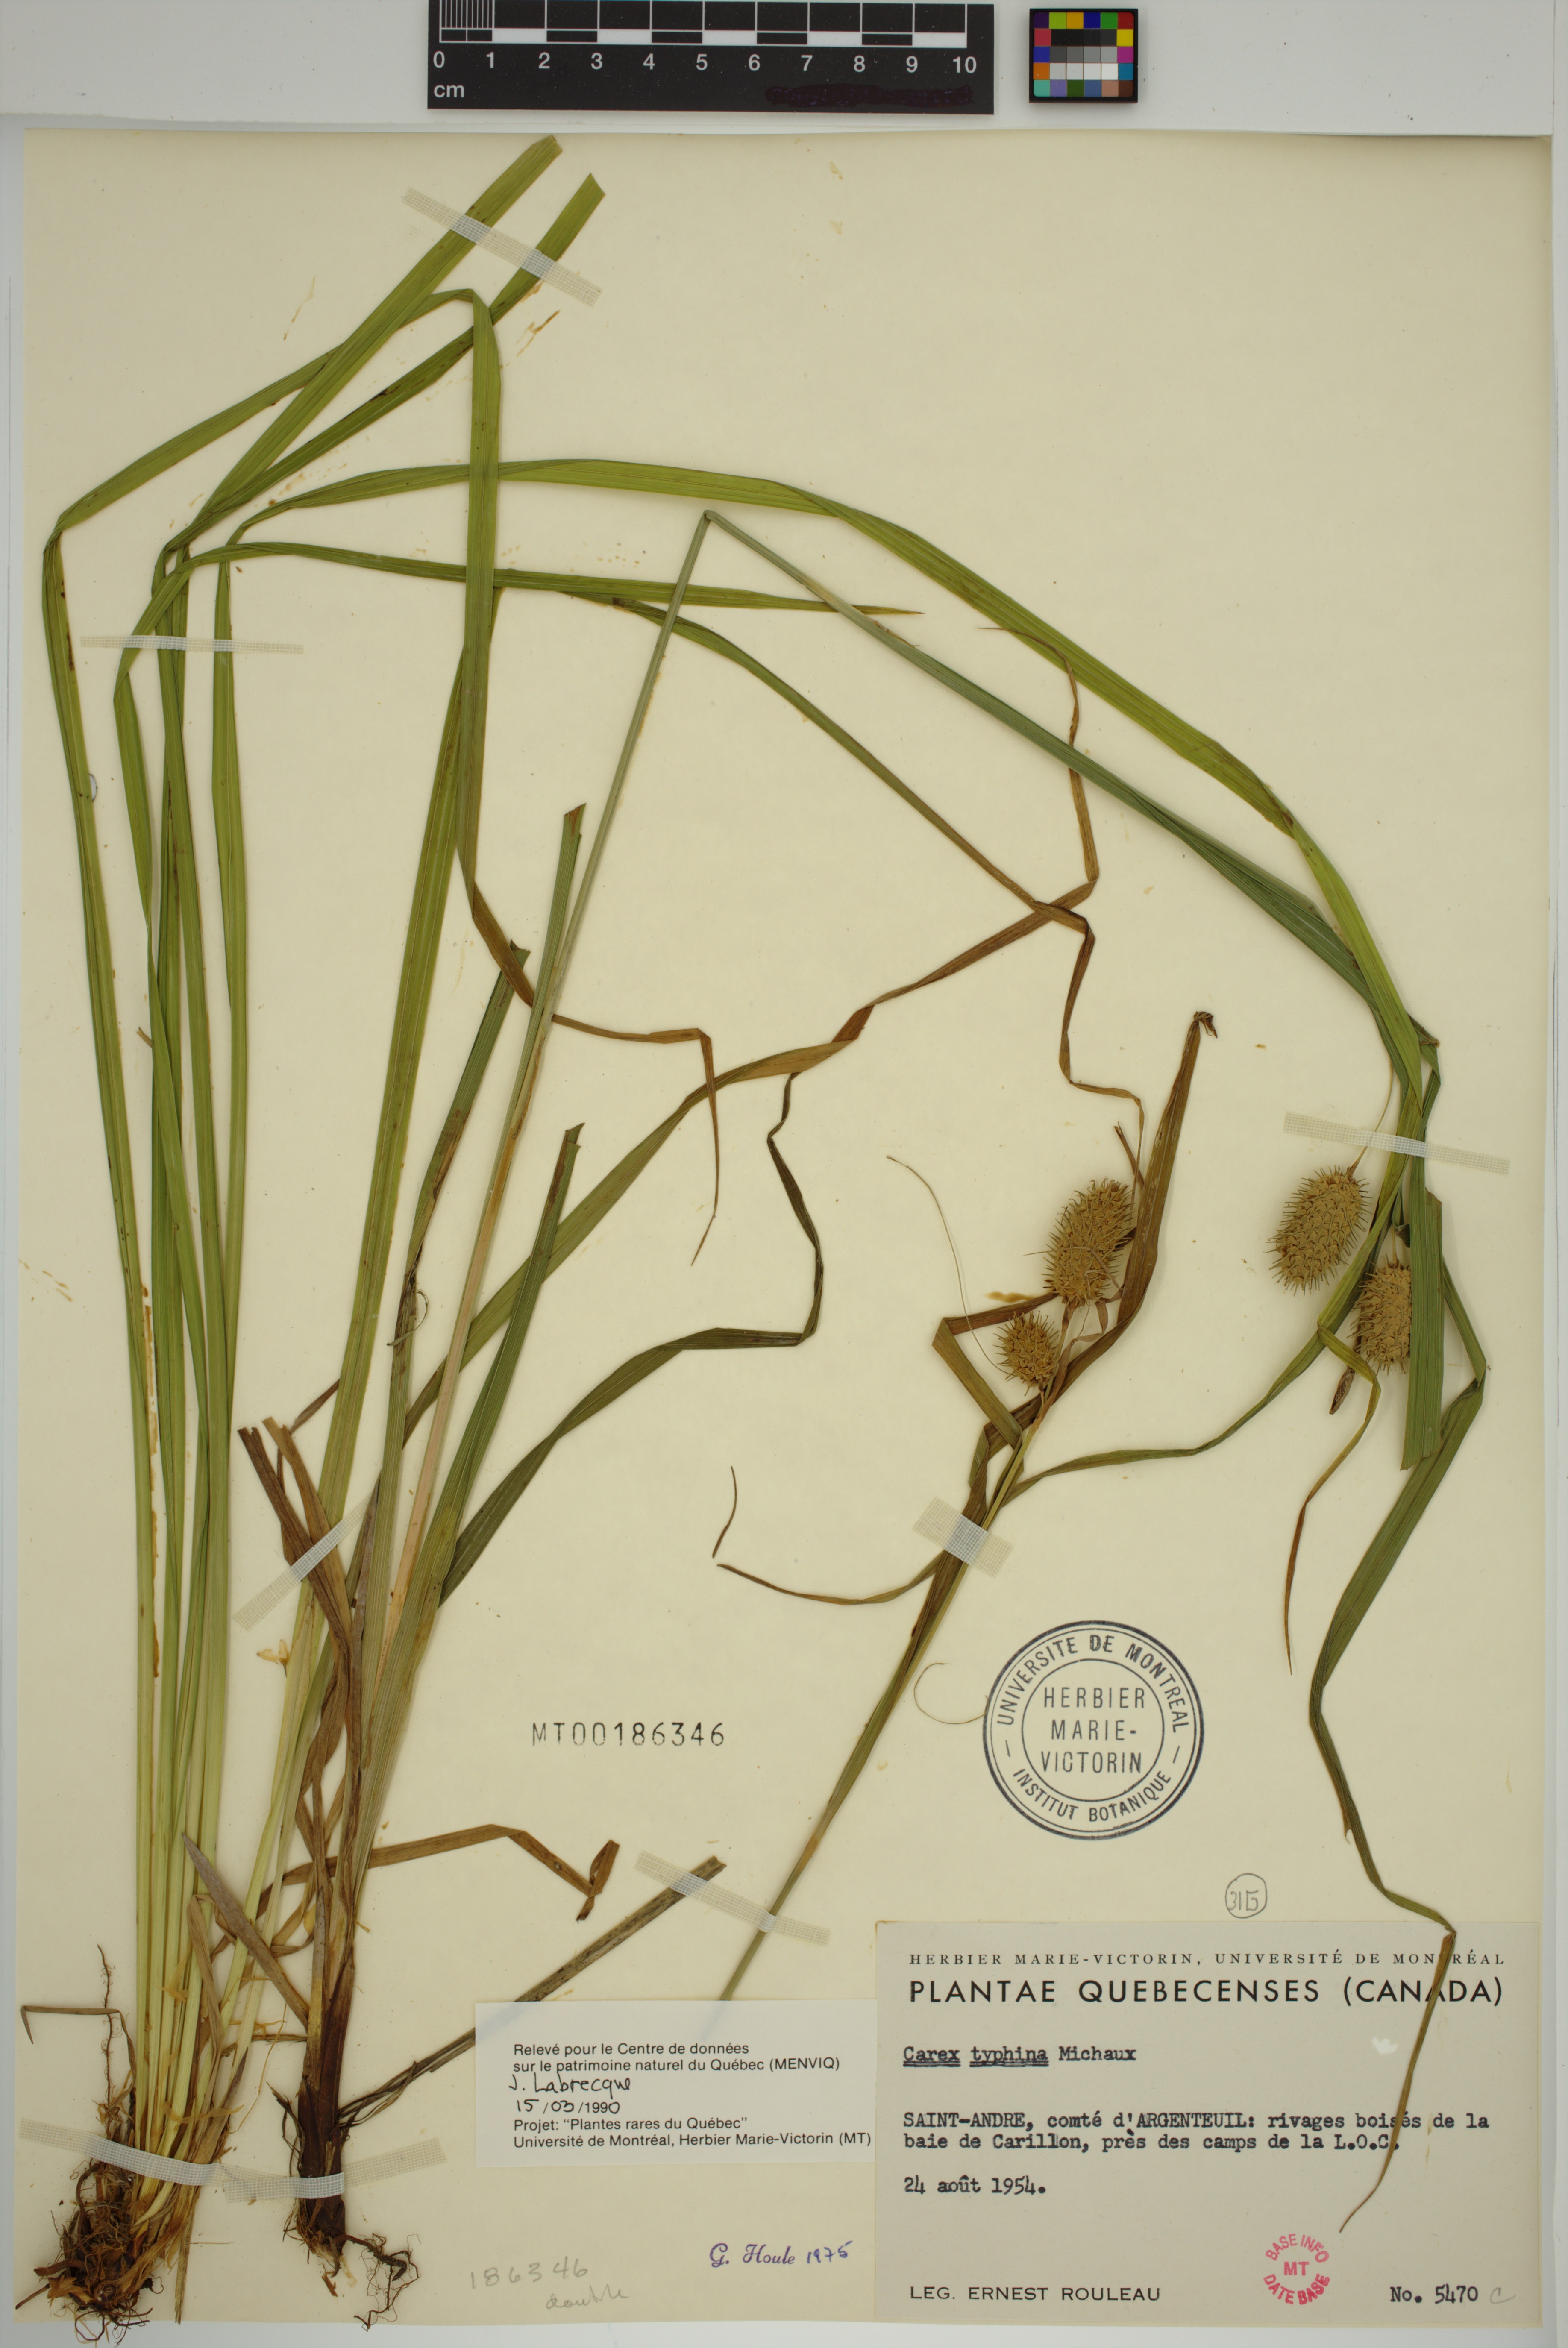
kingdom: Plantae
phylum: Tracheophyta
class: Liliopsida
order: Poales
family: Cyperaceae
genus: Carex
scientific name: Carex typhina
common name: Cattail sedge
